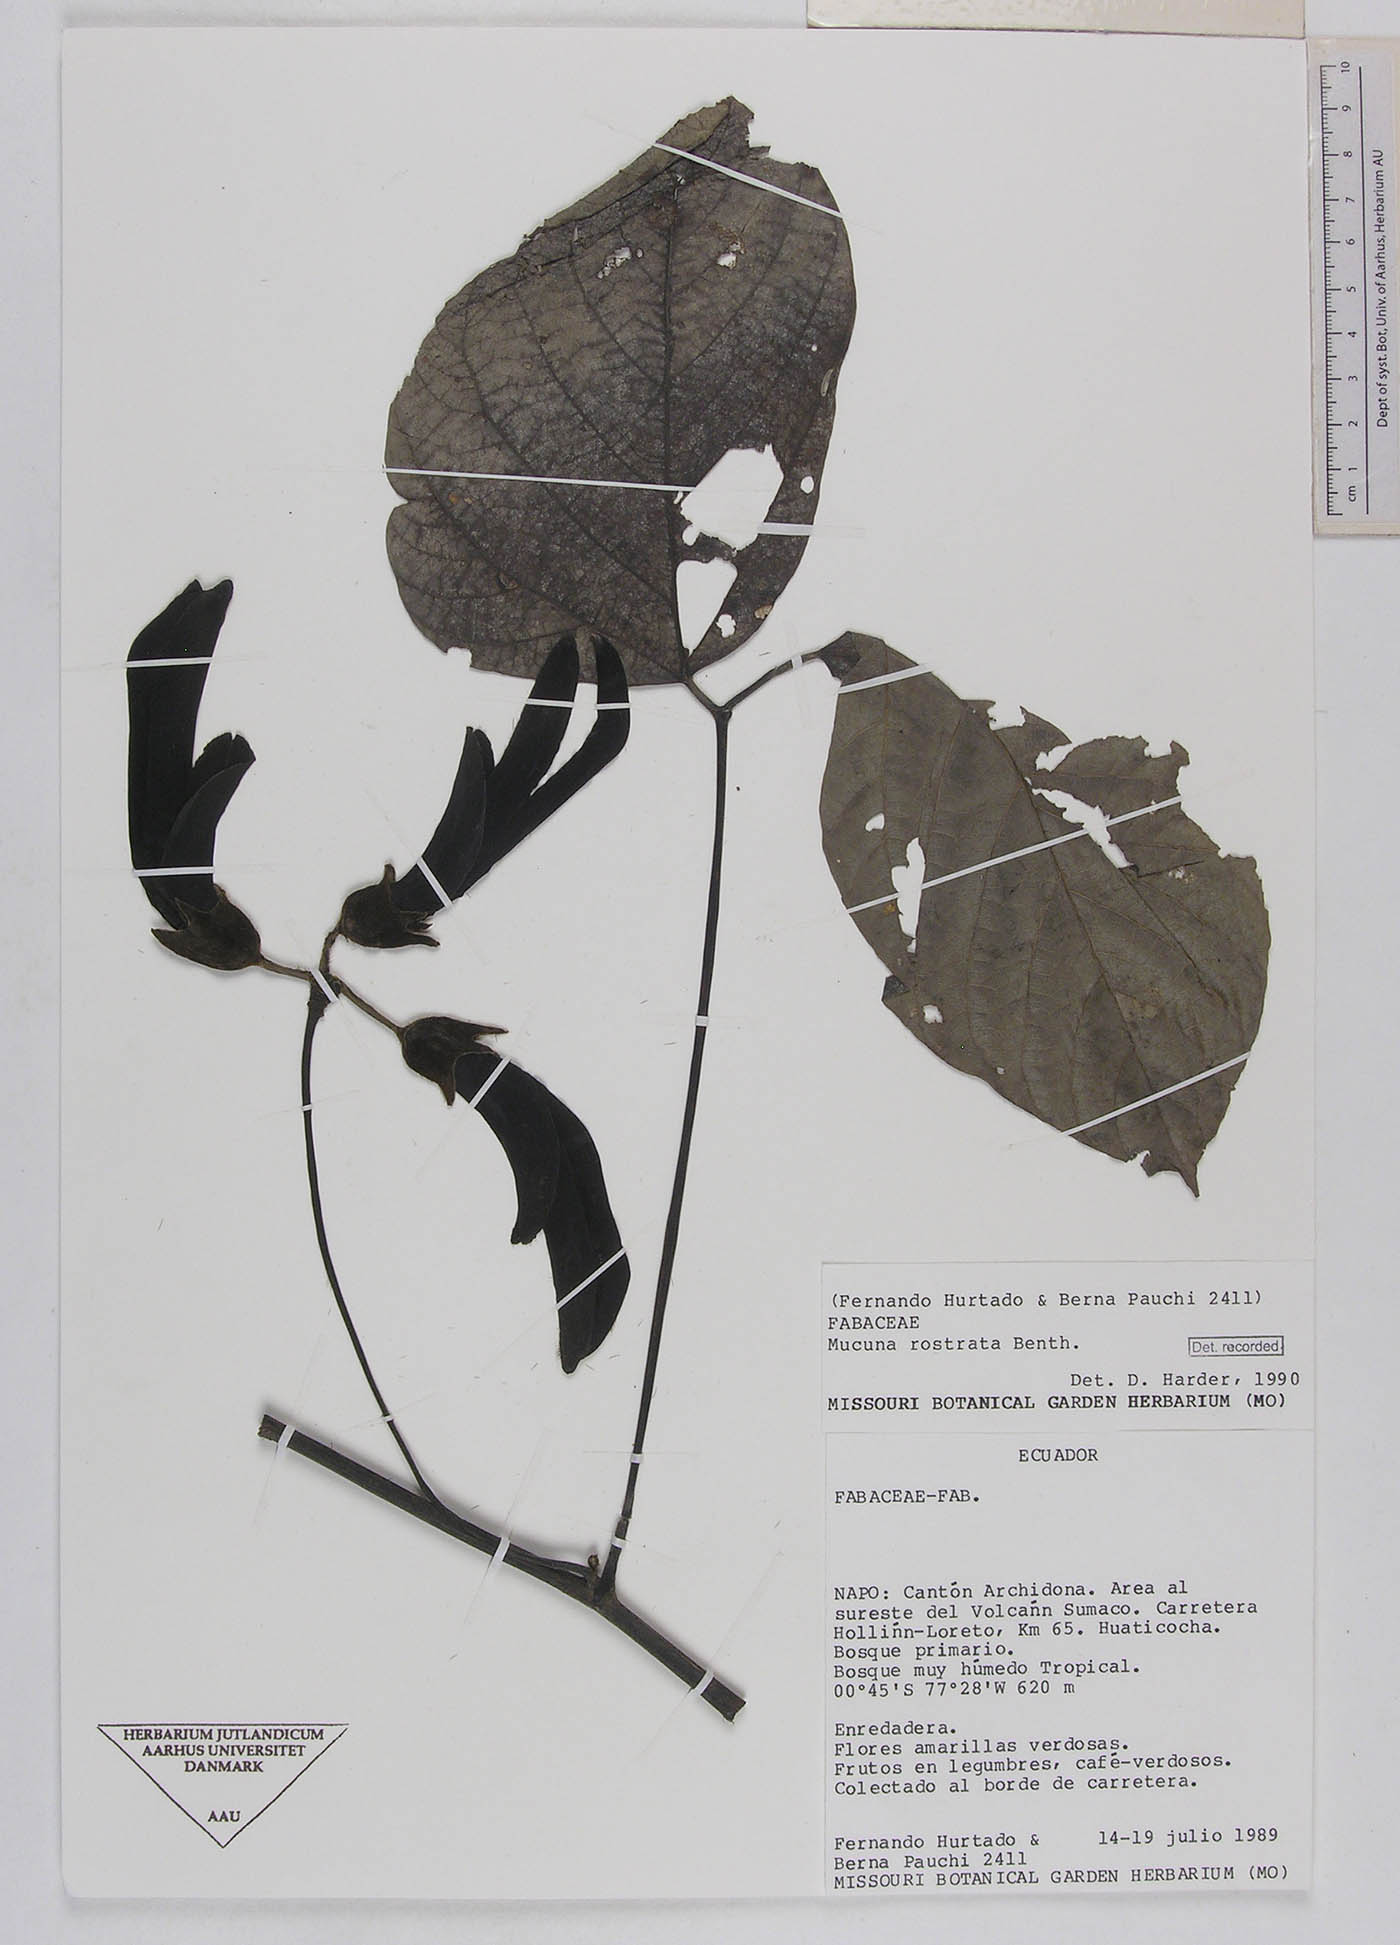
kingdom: Plantae
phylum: Tracheophyta
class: Magnoliopsida
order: Fabales
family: Fabaceae
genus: Mucuna
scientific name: Mucuna elliptica
